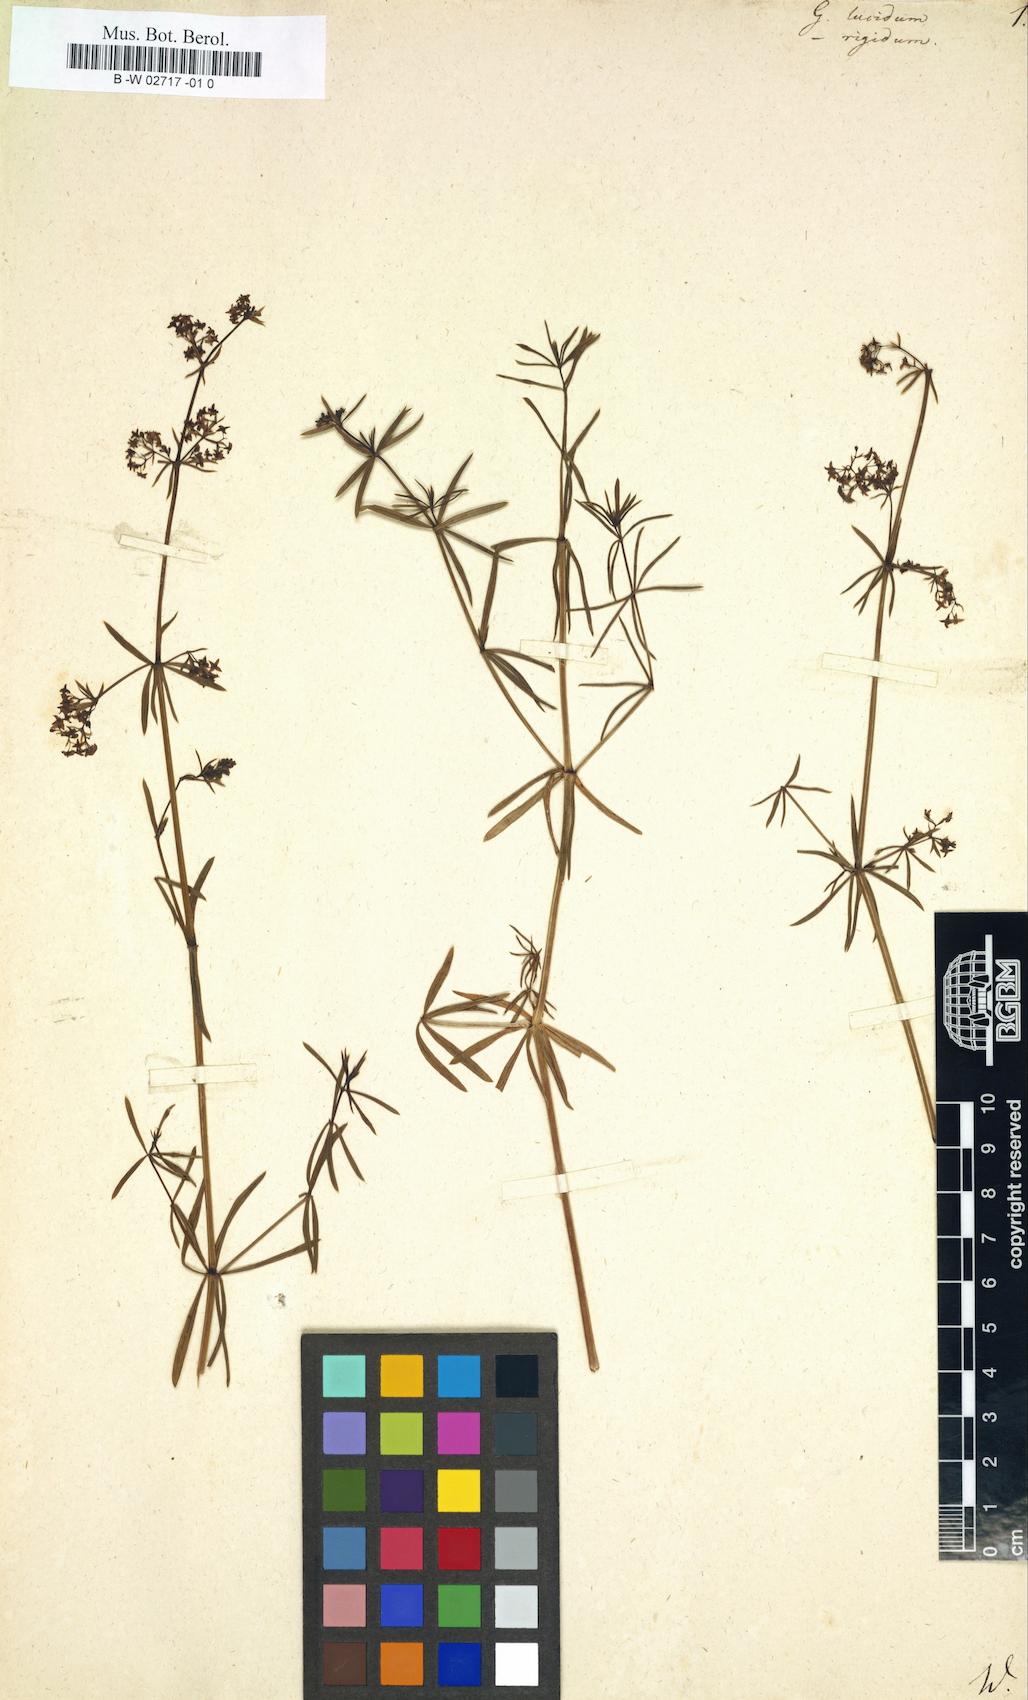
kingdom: Plantae
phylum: Tracheophyta
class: Magnoliopsida
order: Gentianales
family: Rubiaceae
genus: Galium
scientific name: Galium lucidum
